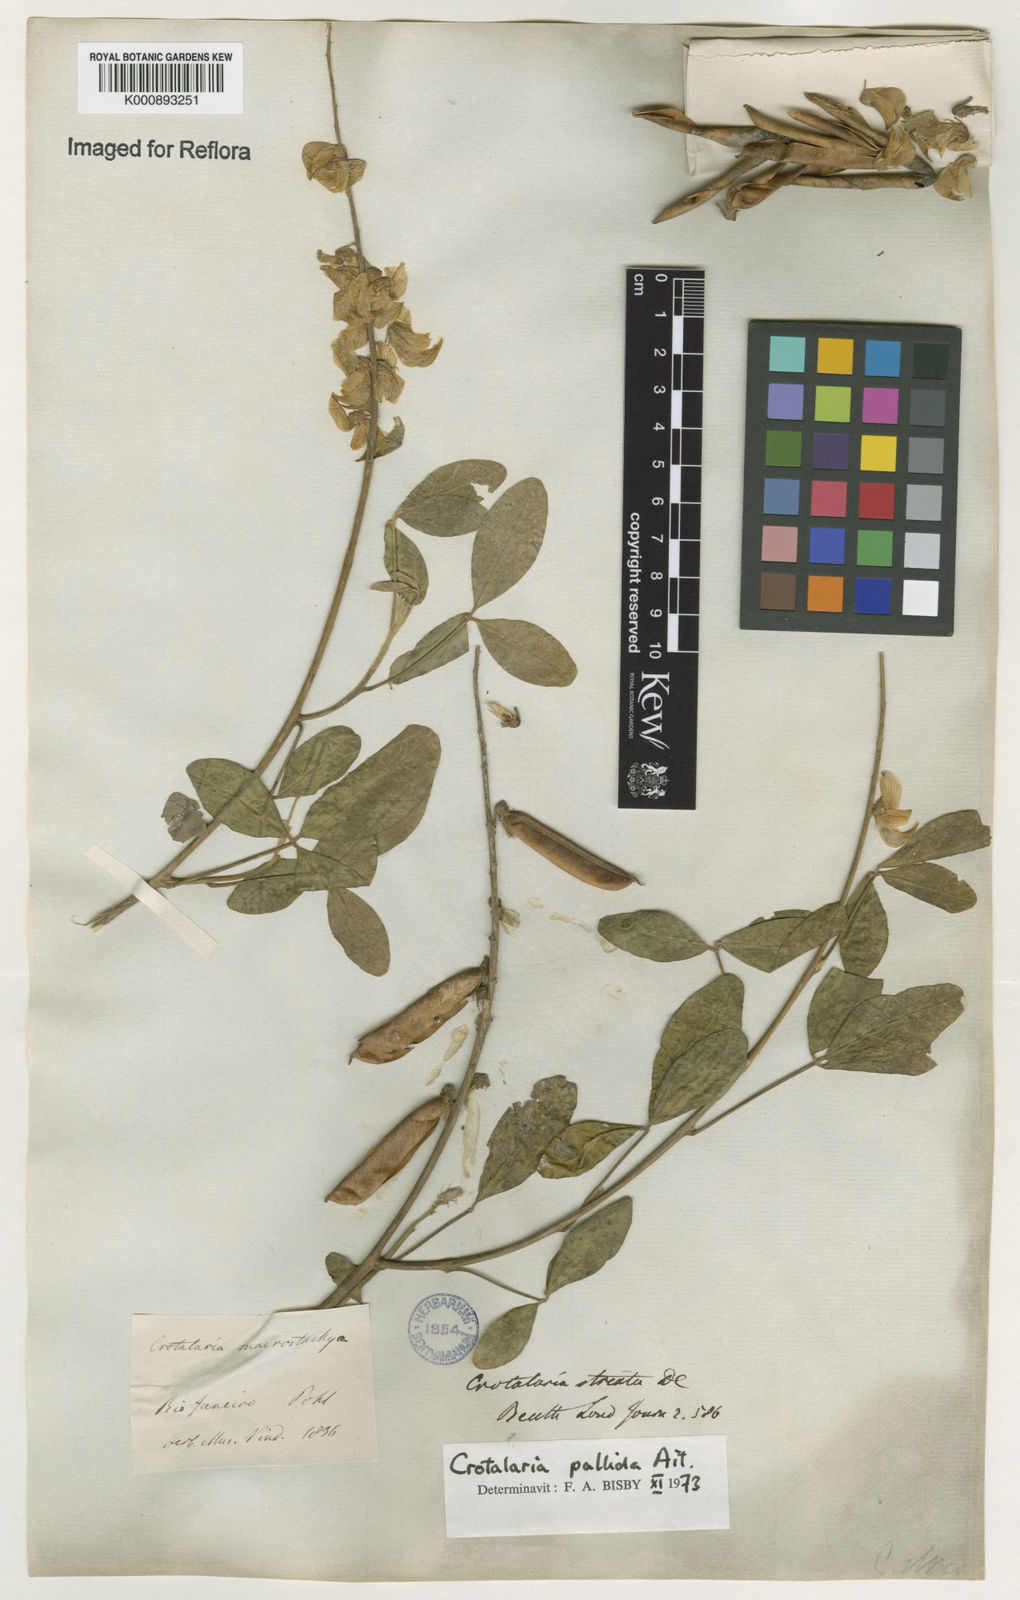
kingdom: Plantae
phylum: Tracheophyta
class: Magnoliopsida
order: Fabales
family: Fabaceae
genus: Crotalaria
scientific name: Crotalaria pallida
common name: Smooth rattlebox
